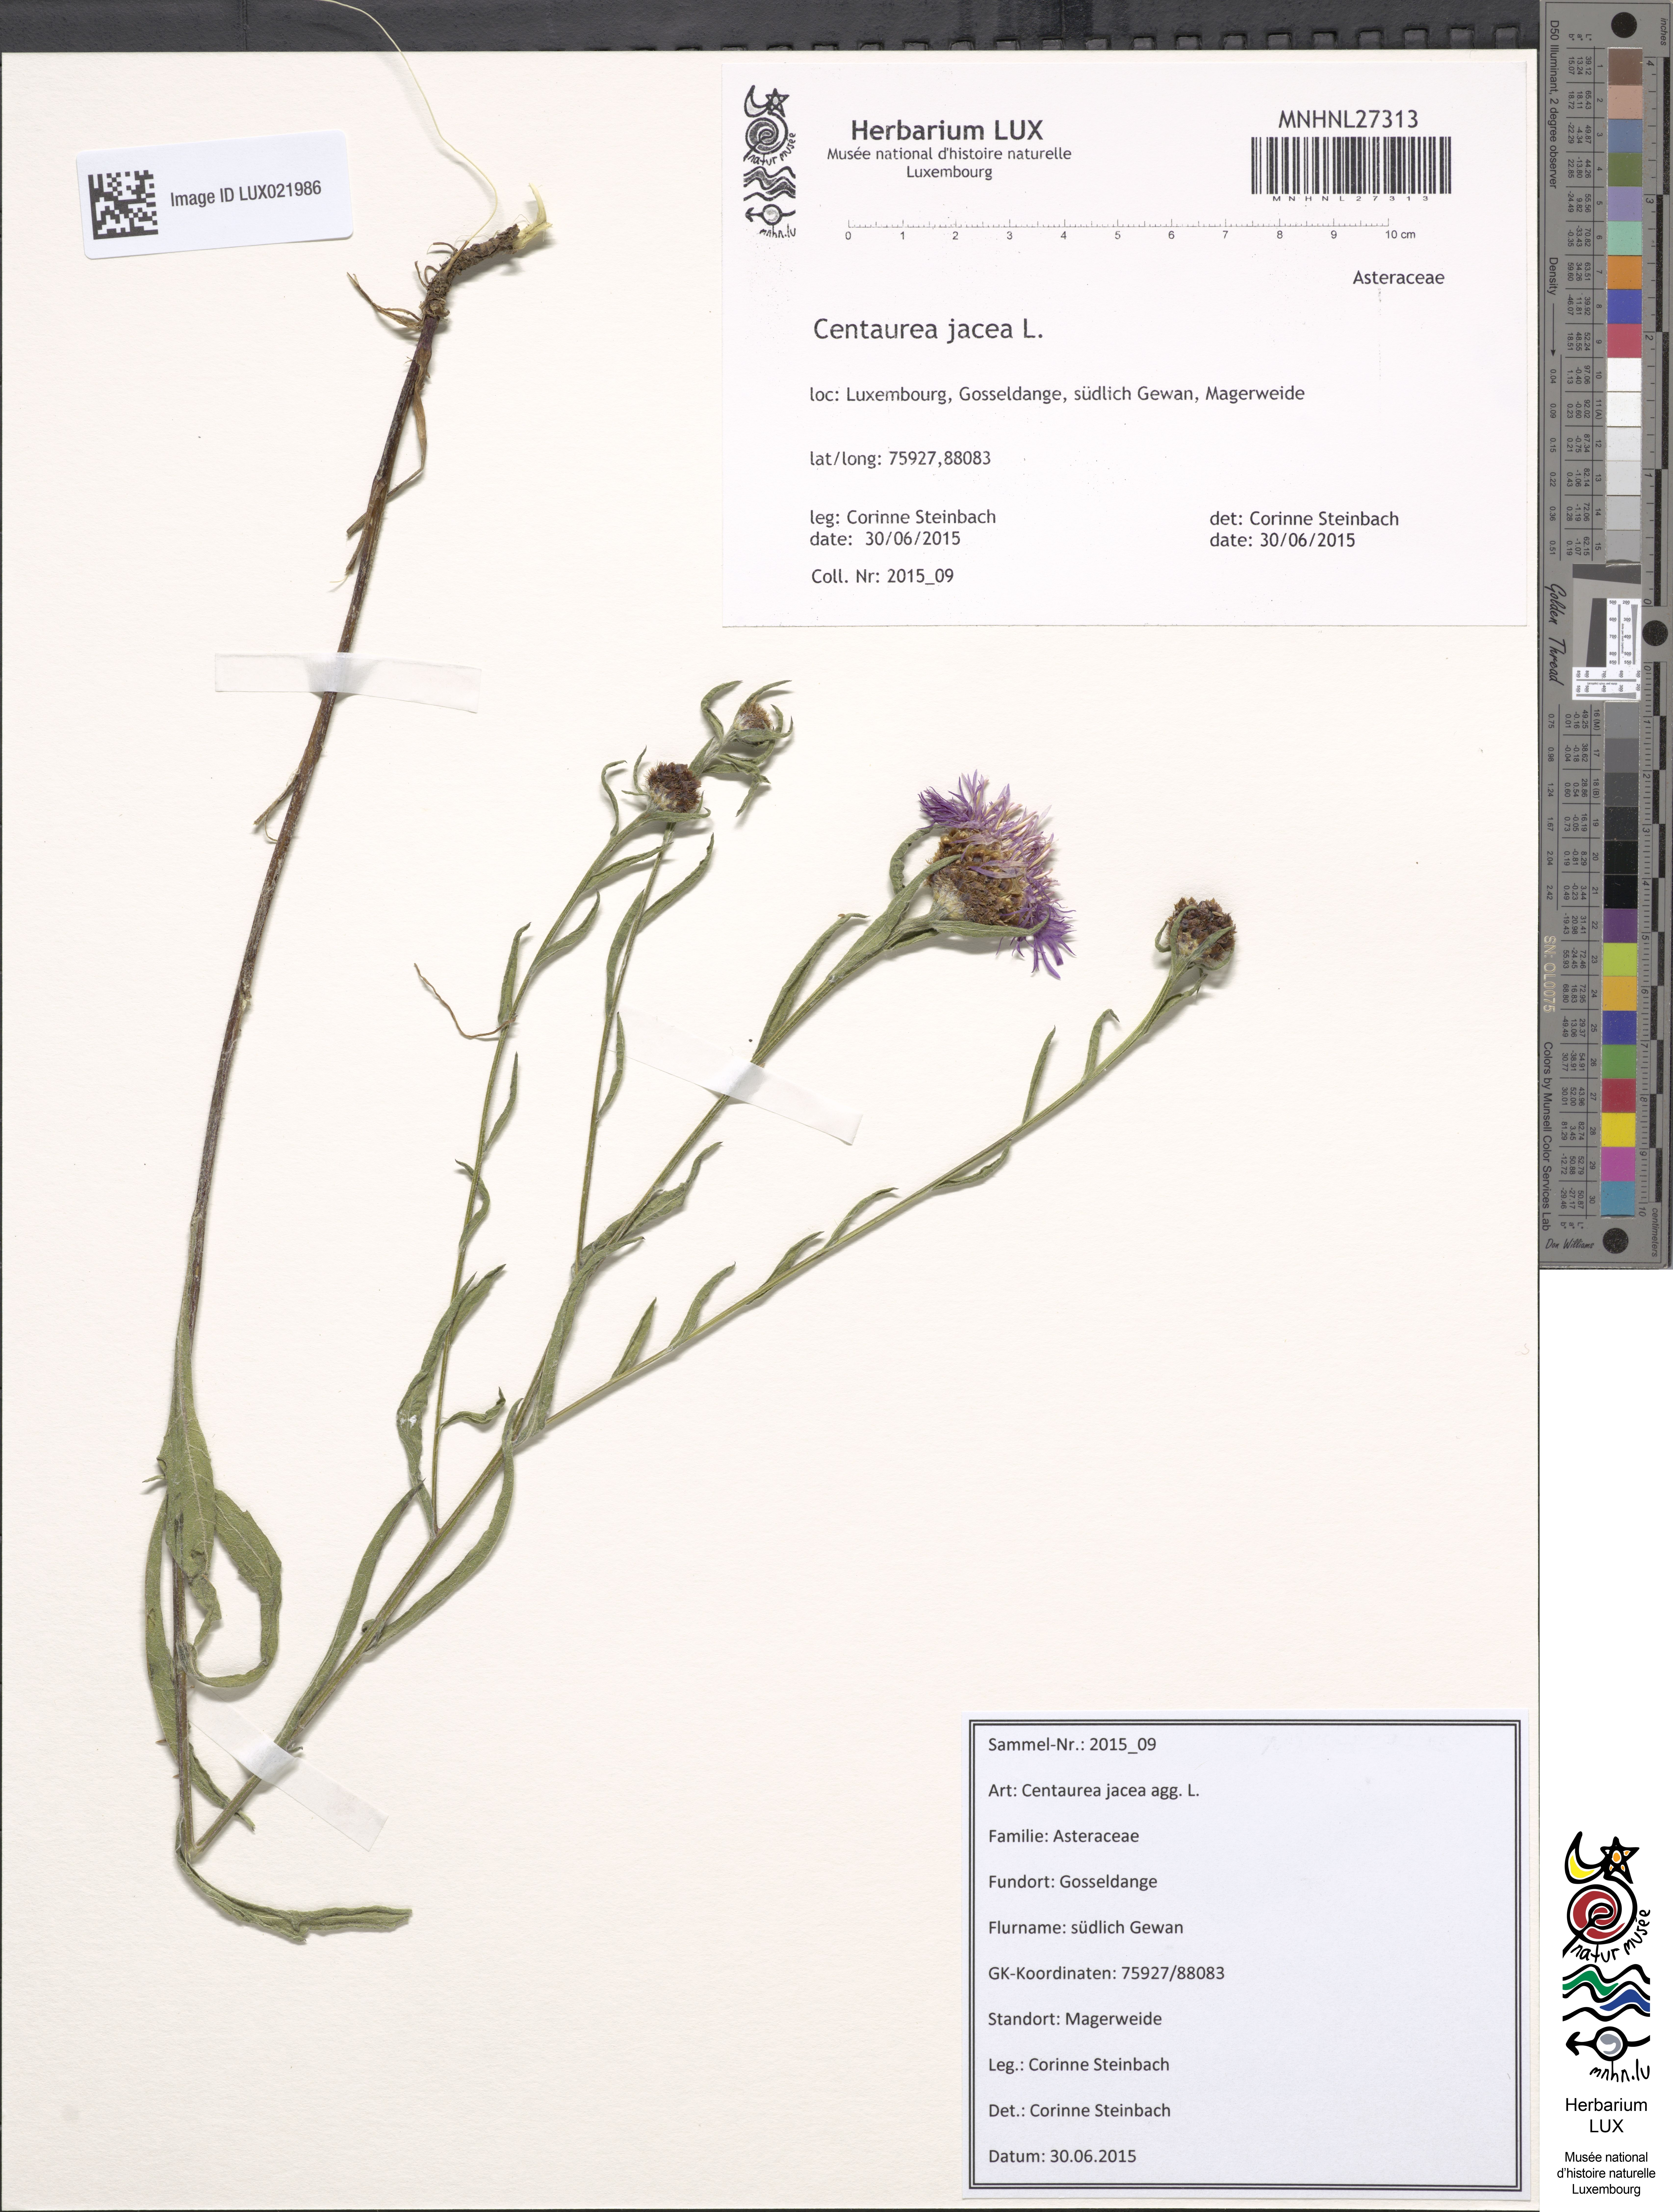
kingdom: Plantae
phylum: Tracheophyta
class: Magnoliopsida
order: Asterales
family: Asteraceae
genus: Centaurea
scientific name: Centaurea jacea
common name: Brown knapweed
